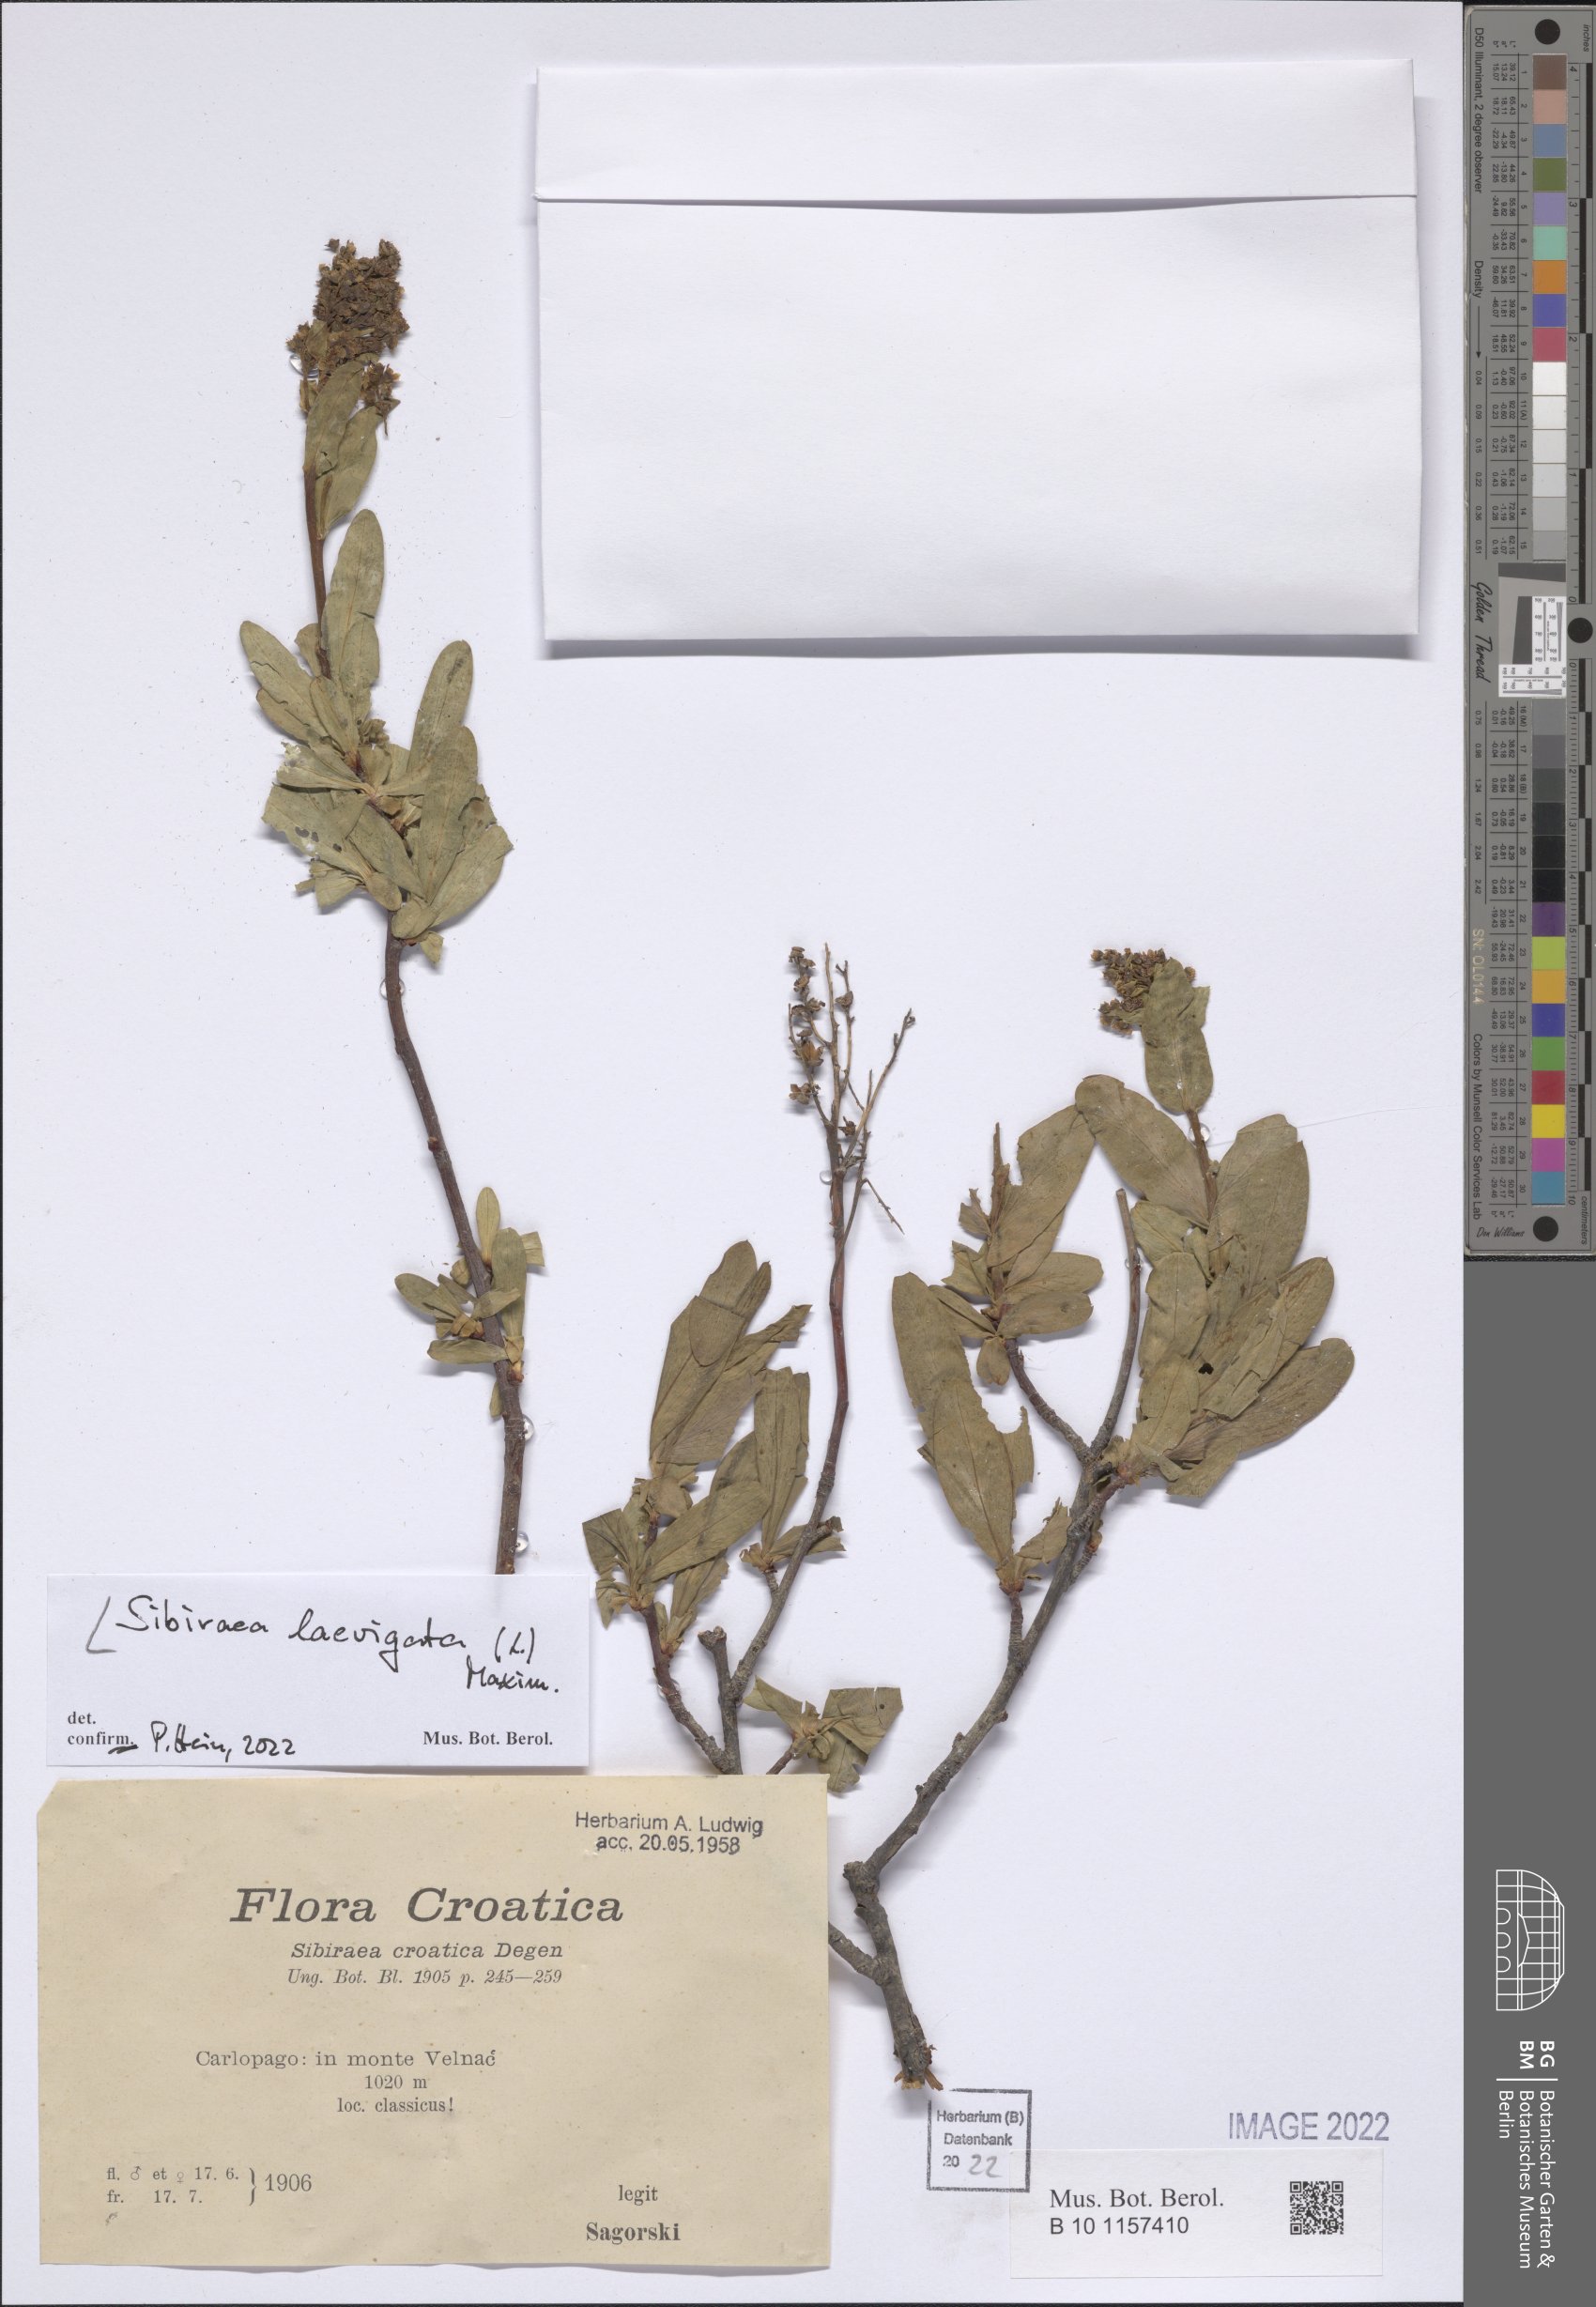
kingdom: Plantae
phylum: Tracheophyta
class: Magnoliopsida
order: Rosales
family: Rosaceae
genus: Sibiraea
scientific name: Sibiraea laevigata
